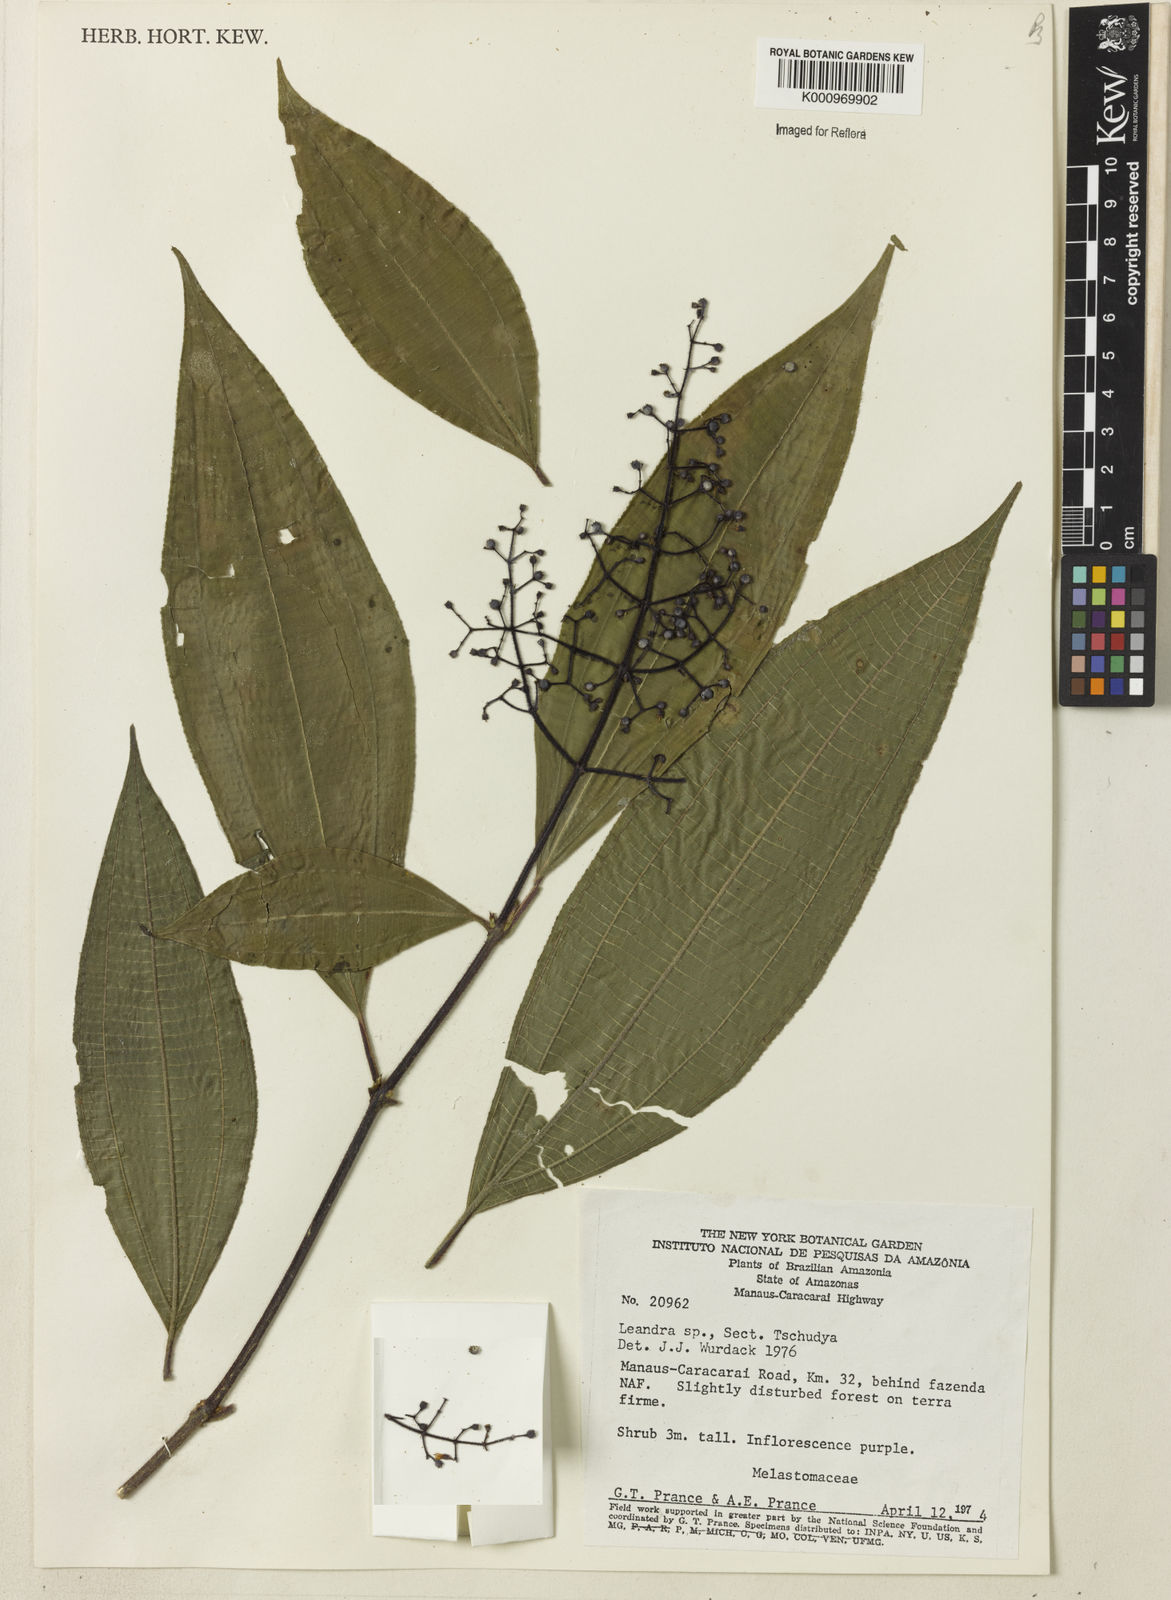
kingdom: Plantae
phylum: Tracheophyta
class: Magnoliopsida
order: Myrtales
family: Melastomataceae
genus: Miconia
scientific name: Miconia
